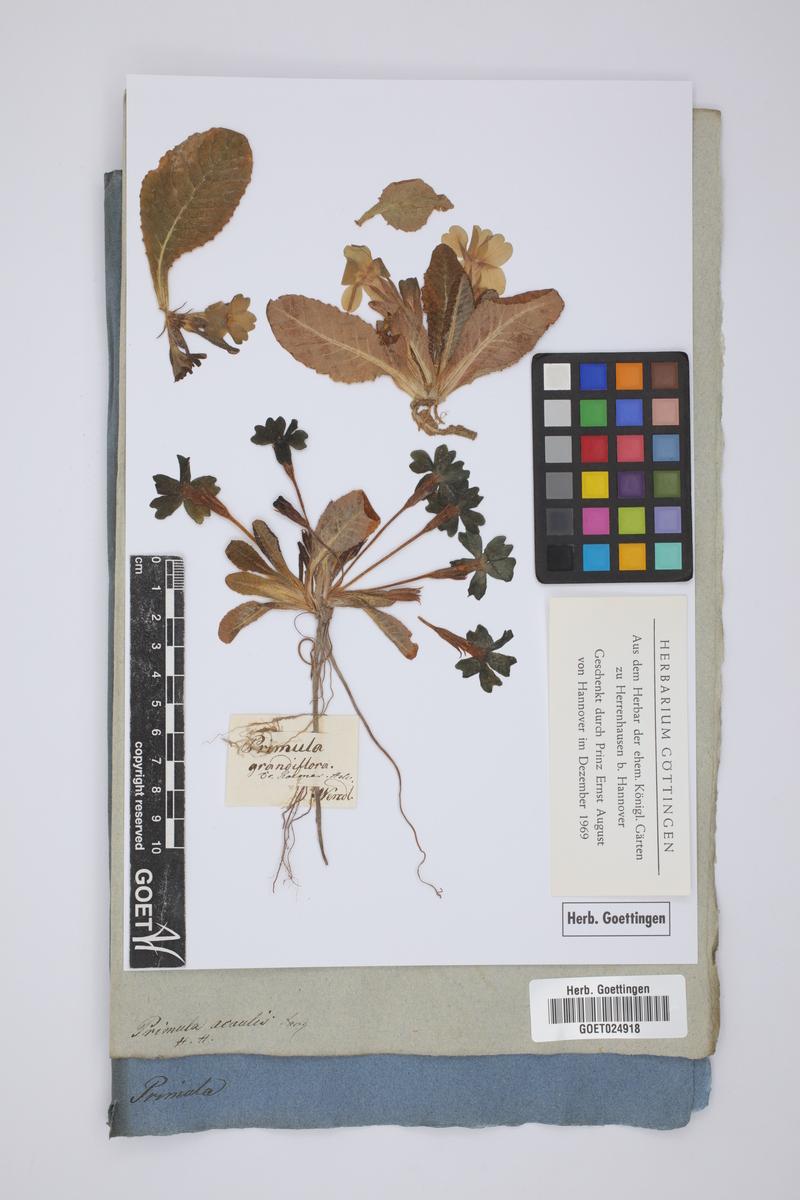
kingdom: Plantae
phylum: Tracheophyta
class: Magnoliopsida
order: Ericales
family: Primulaceae
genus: Primula
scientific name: Primula vulgaris
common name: Primrose
